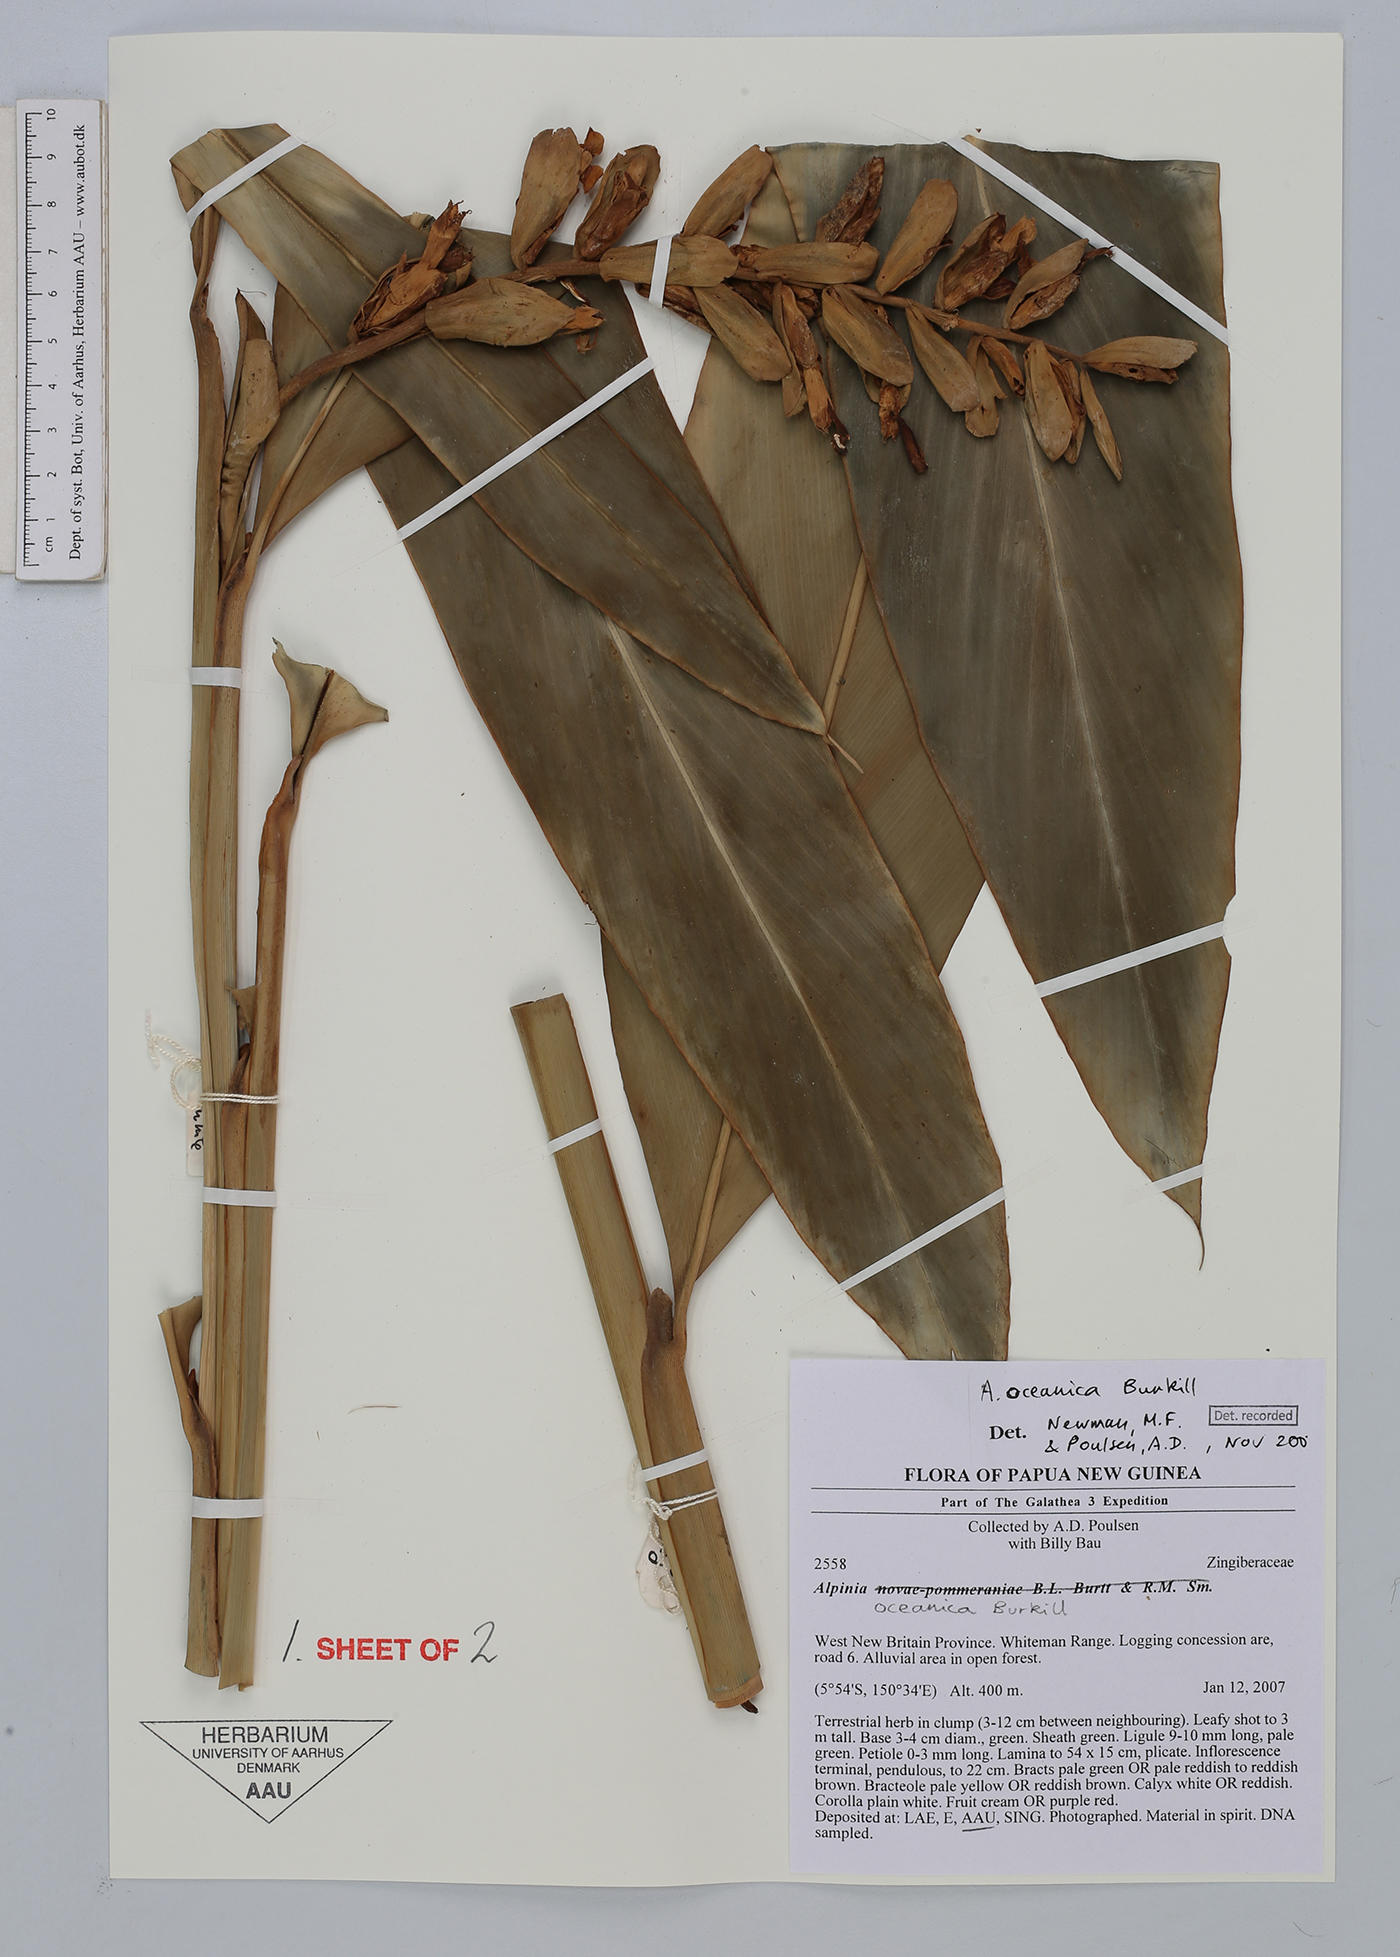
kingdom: Plantae
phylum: Tracheophyta
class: Liliopsida
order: Zingiberales
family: Zingiberaceae
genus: Alpinia
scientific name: Alpinia oceanica
